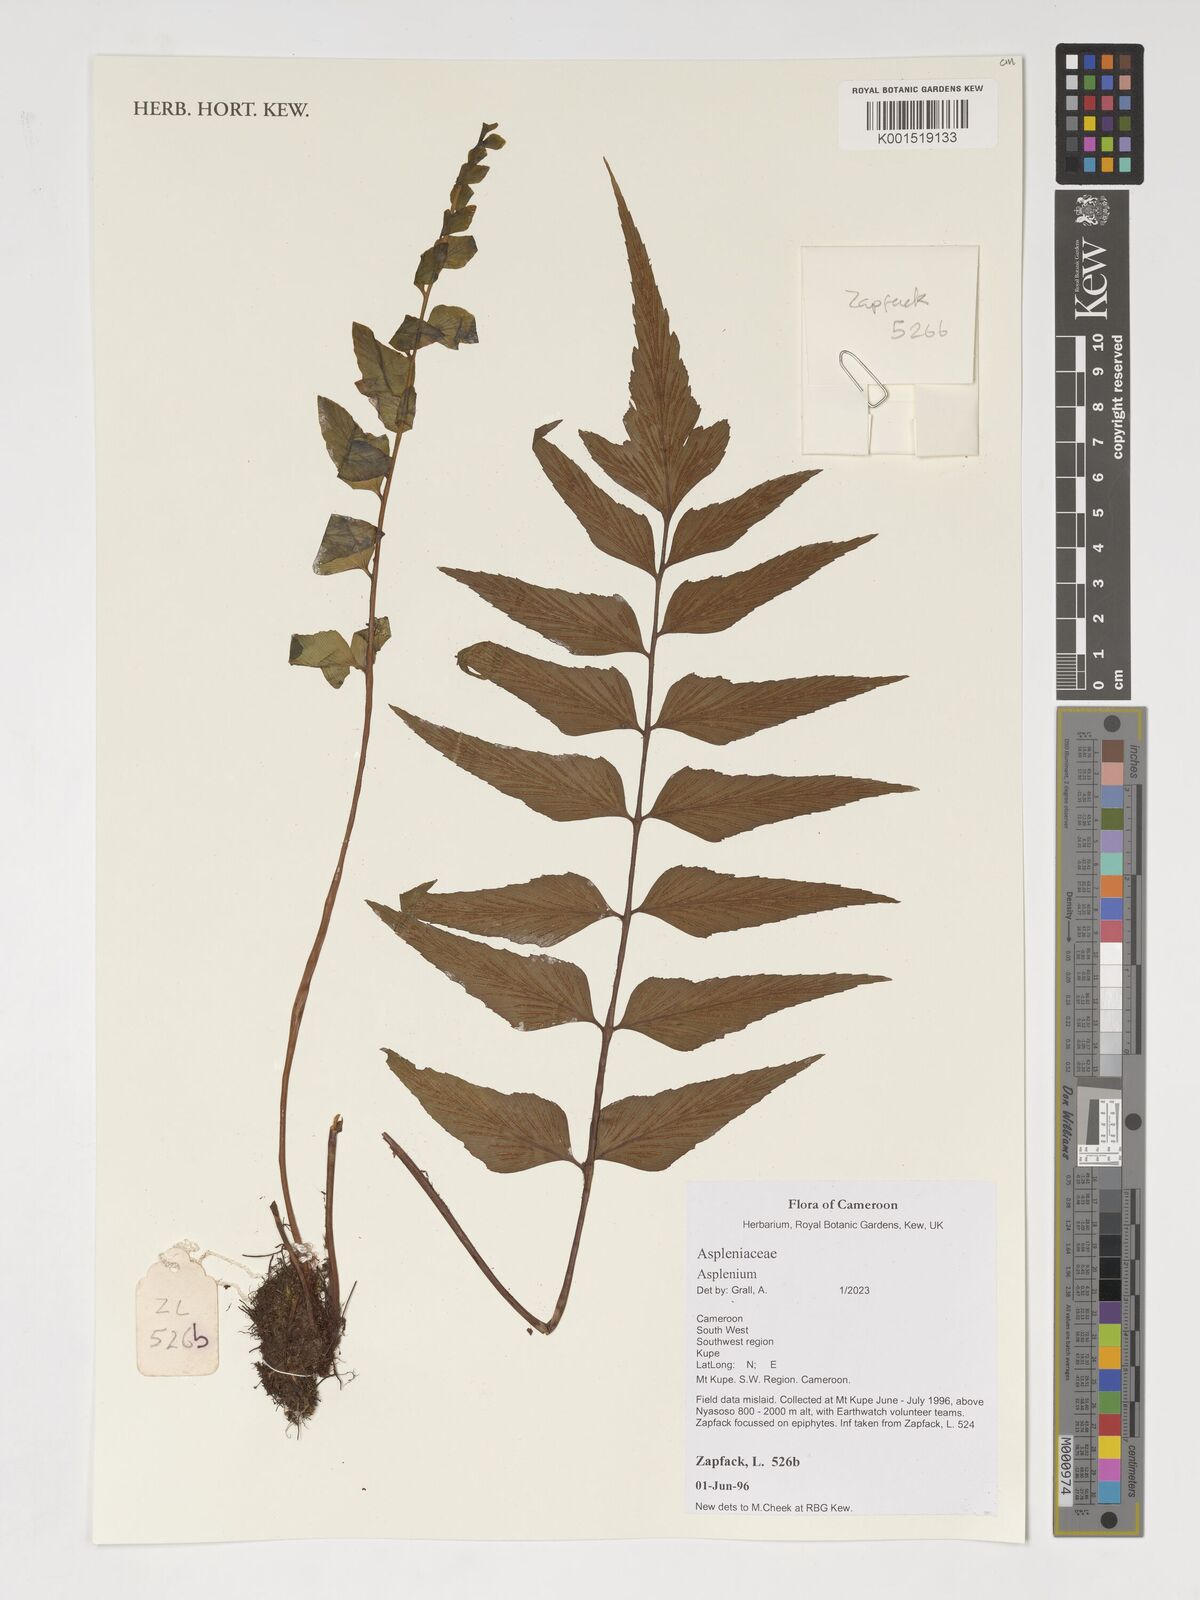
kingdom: Plantae
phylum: Tracheophyta
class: Polypodiopsida
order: Polypodiales
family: Aspleniaceae
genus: Asplenium
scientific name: Asplenium
